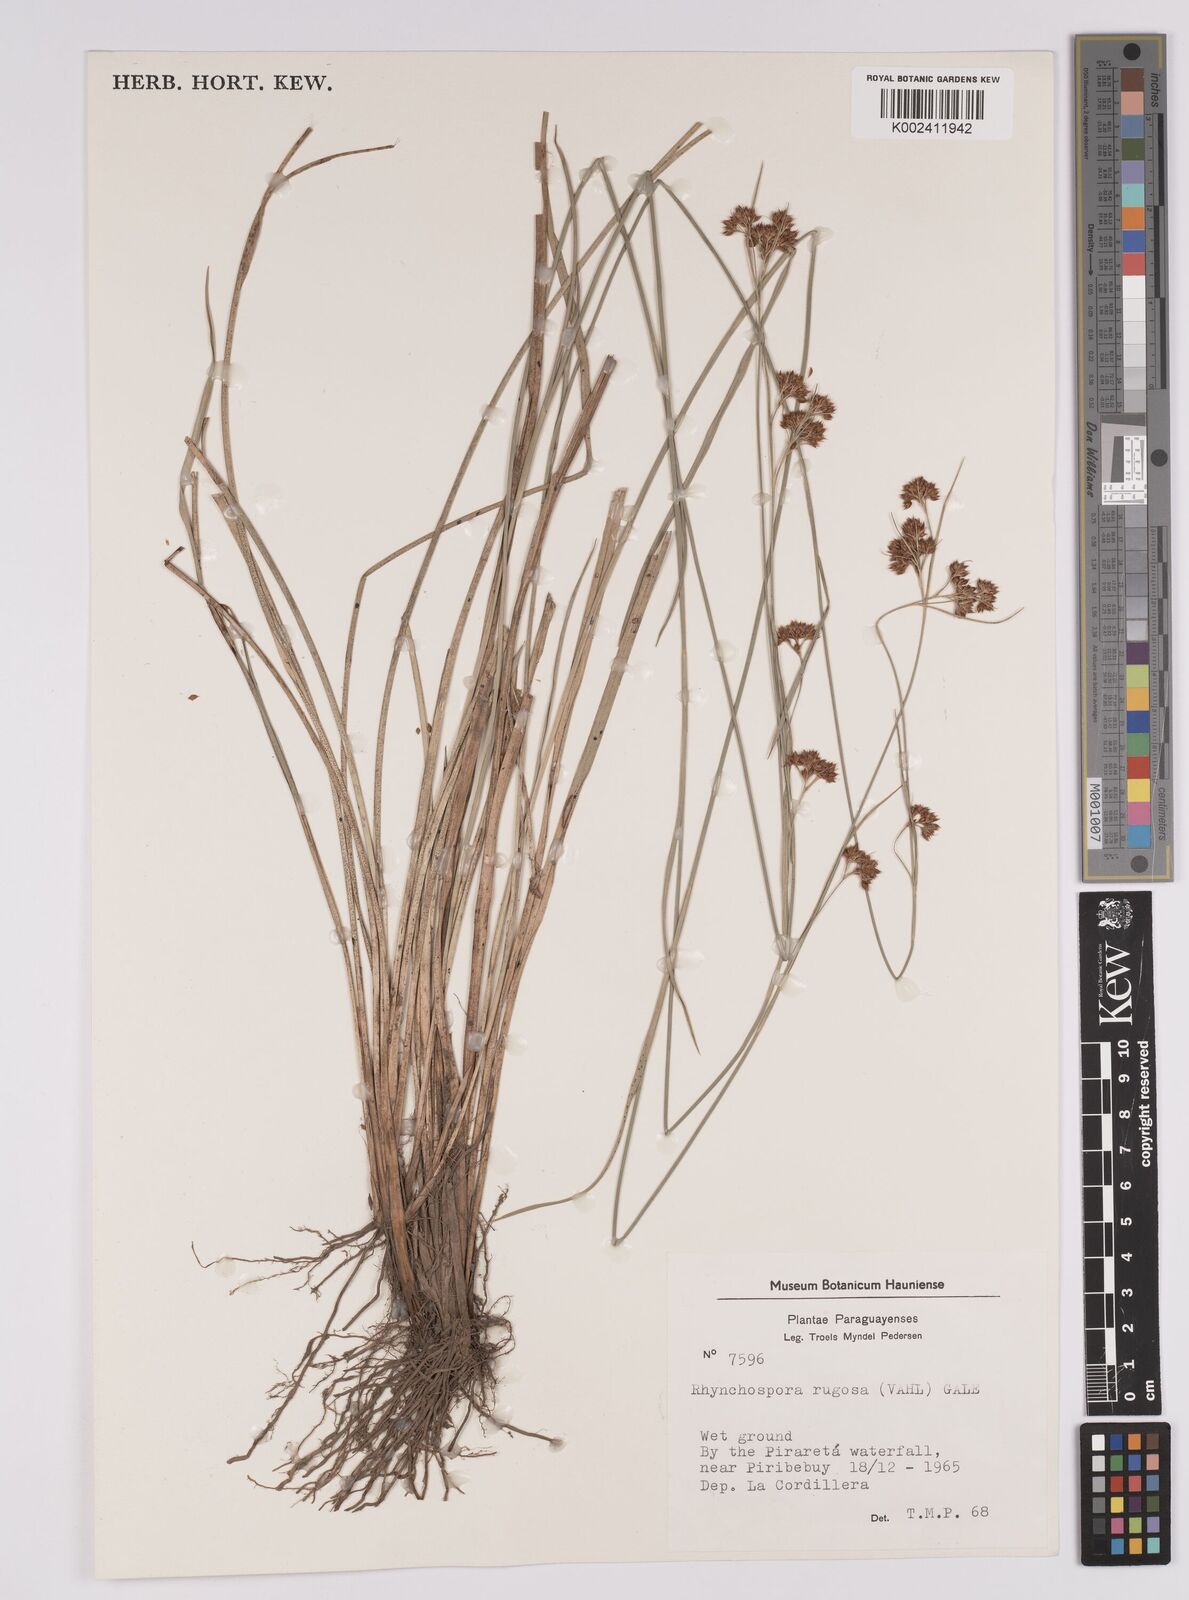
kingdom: Plantae
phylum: Tracheophyta
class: Liliopsida
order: Poales
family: Cyperaceae
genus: Rhynchospora
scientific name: Rhynchospora barrosiana
